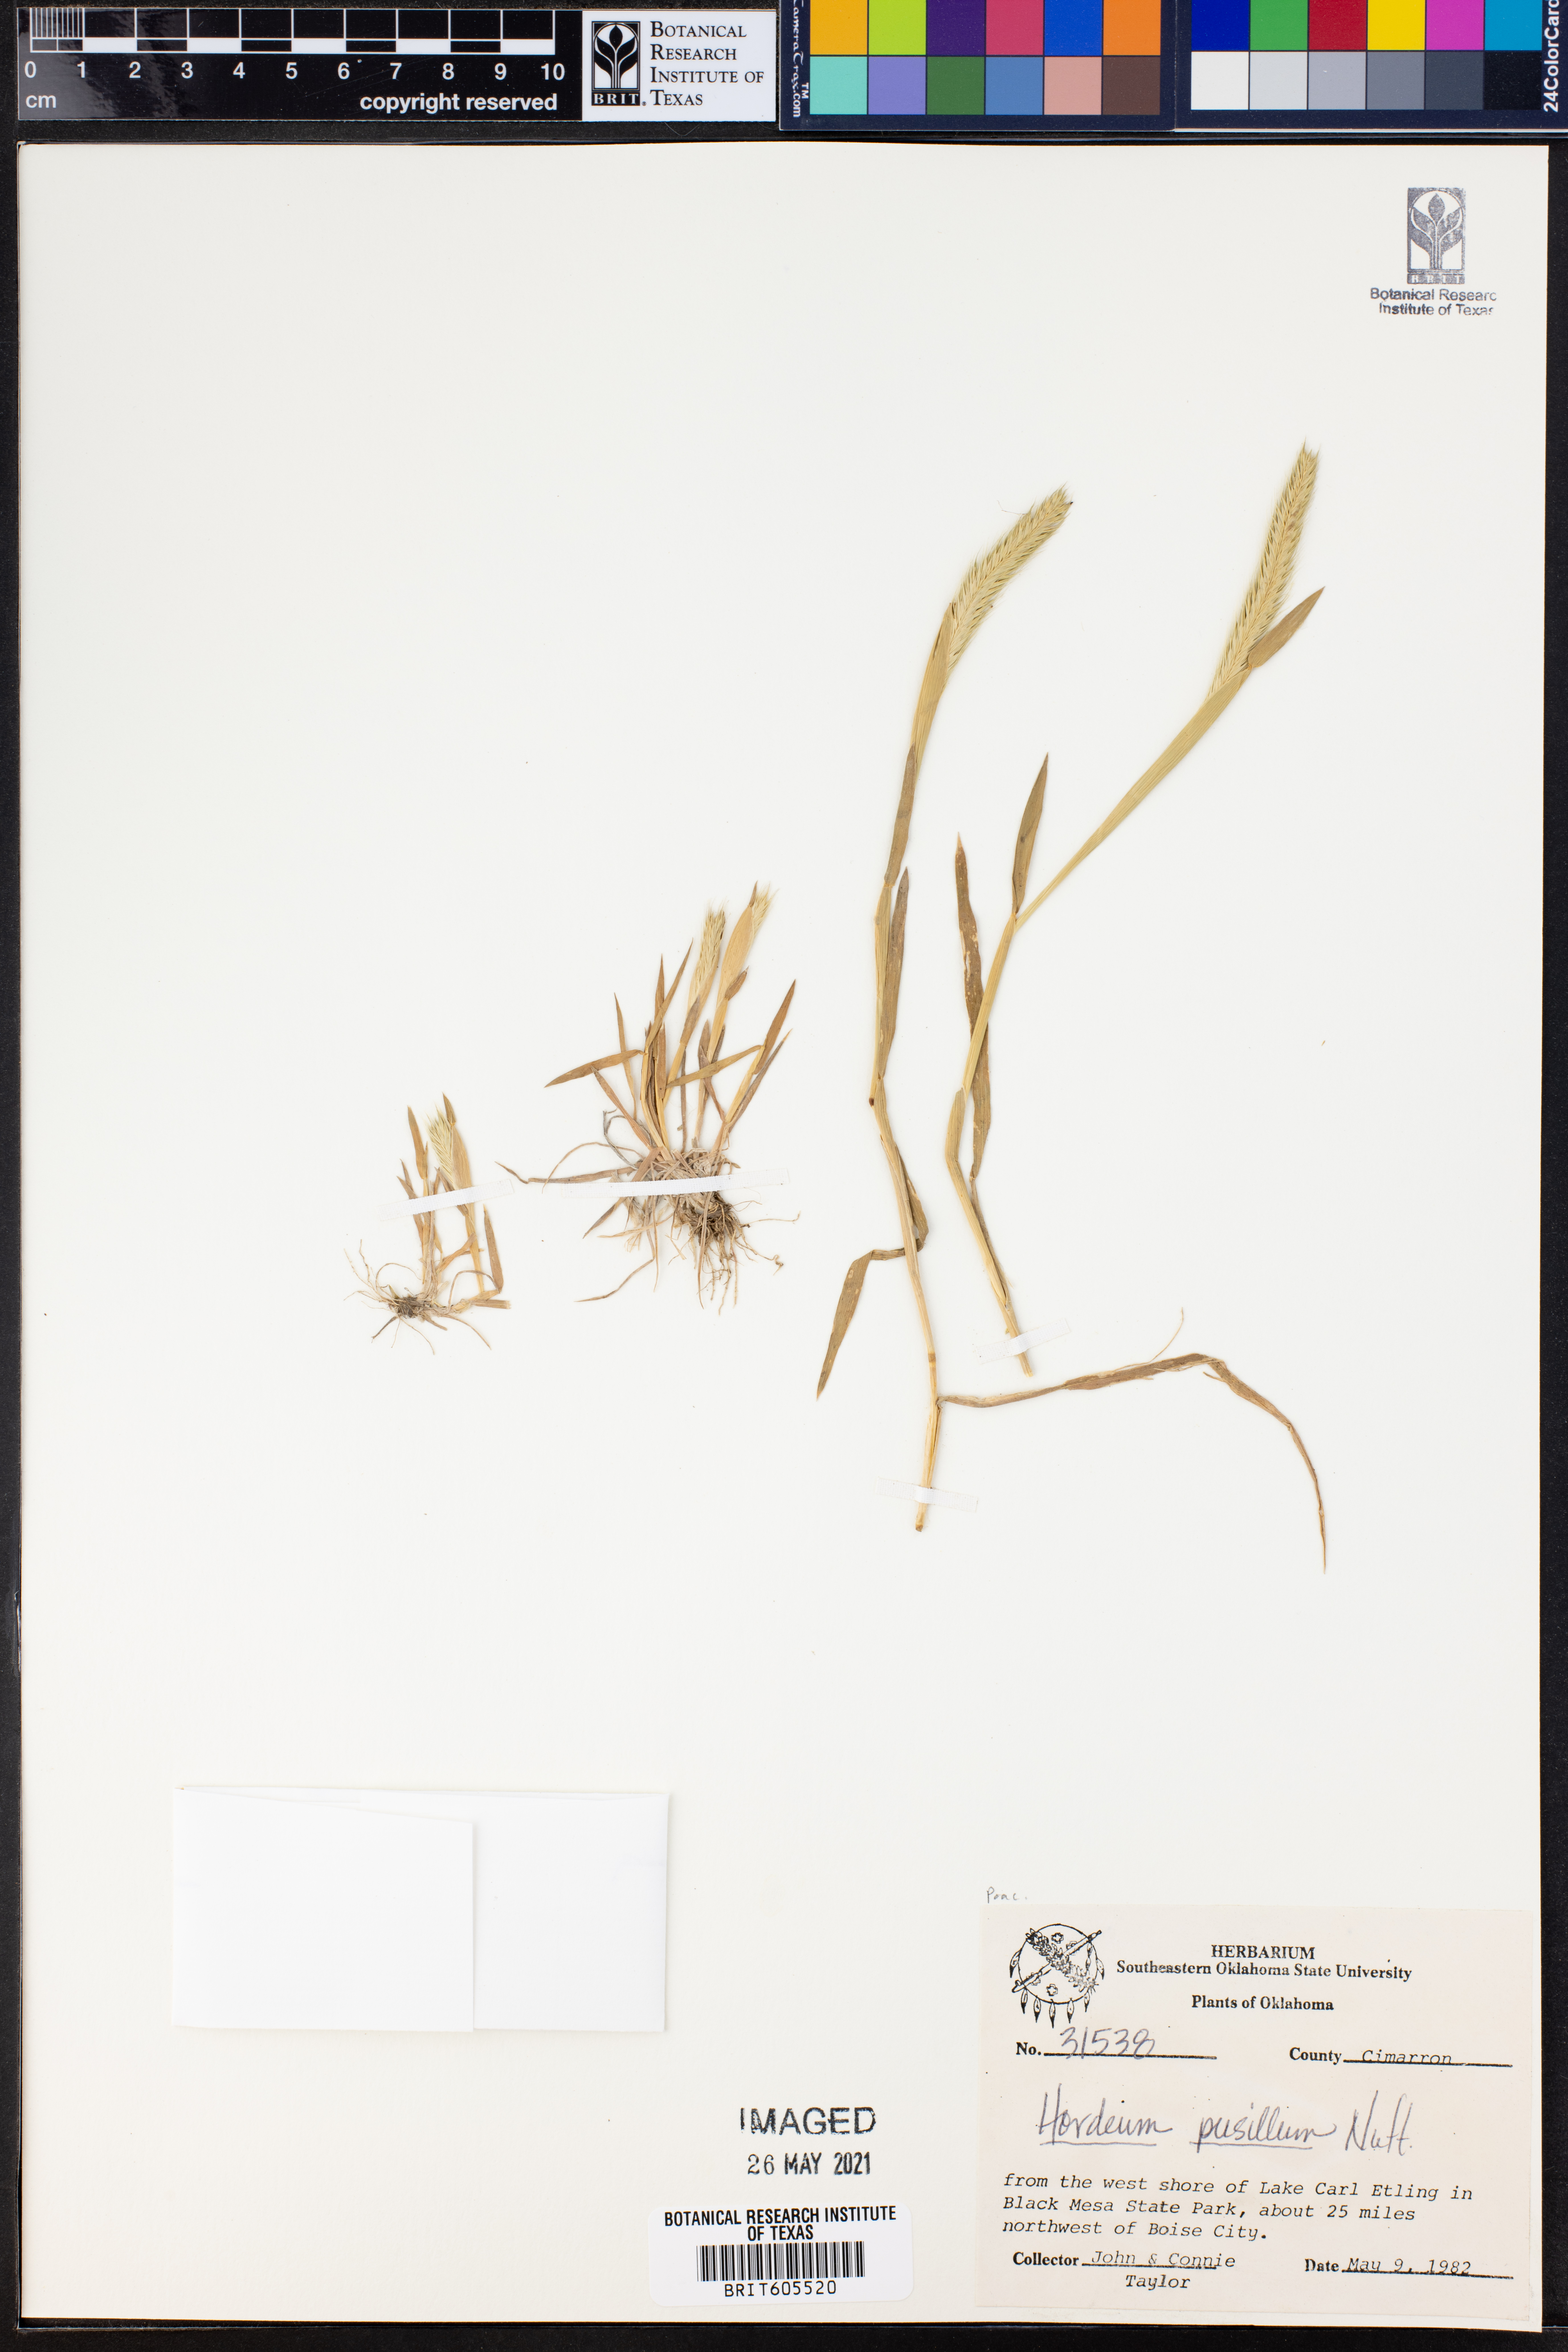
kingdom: Plantae
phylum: Tracheophyta
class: Liliopsida
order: Poales
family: Poaceae
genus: Hordeum
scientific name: Hordeum pusillum
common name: Little barley
